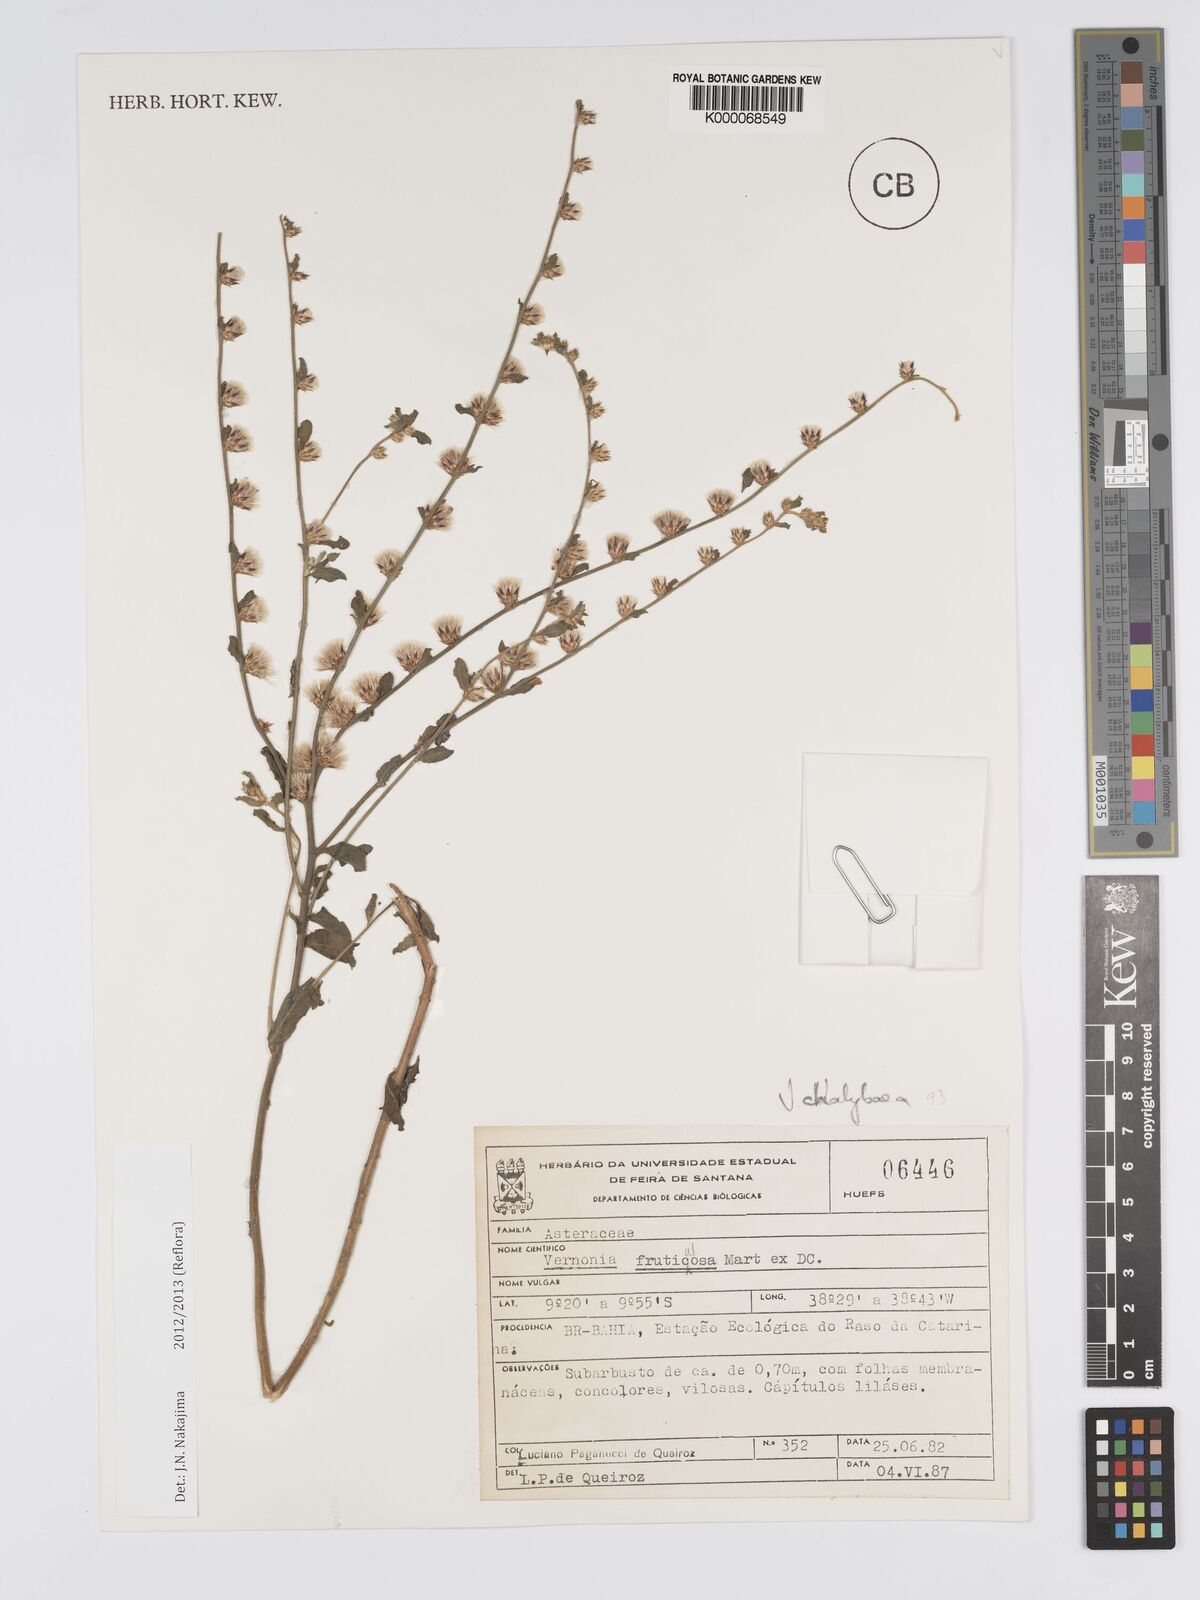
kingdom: Plantae
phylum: Tracheophyta
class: Magnoliopsida
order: Asterales
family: Asteraceae
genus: Lepidaploa
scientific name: Lepidaploa chalybaea
